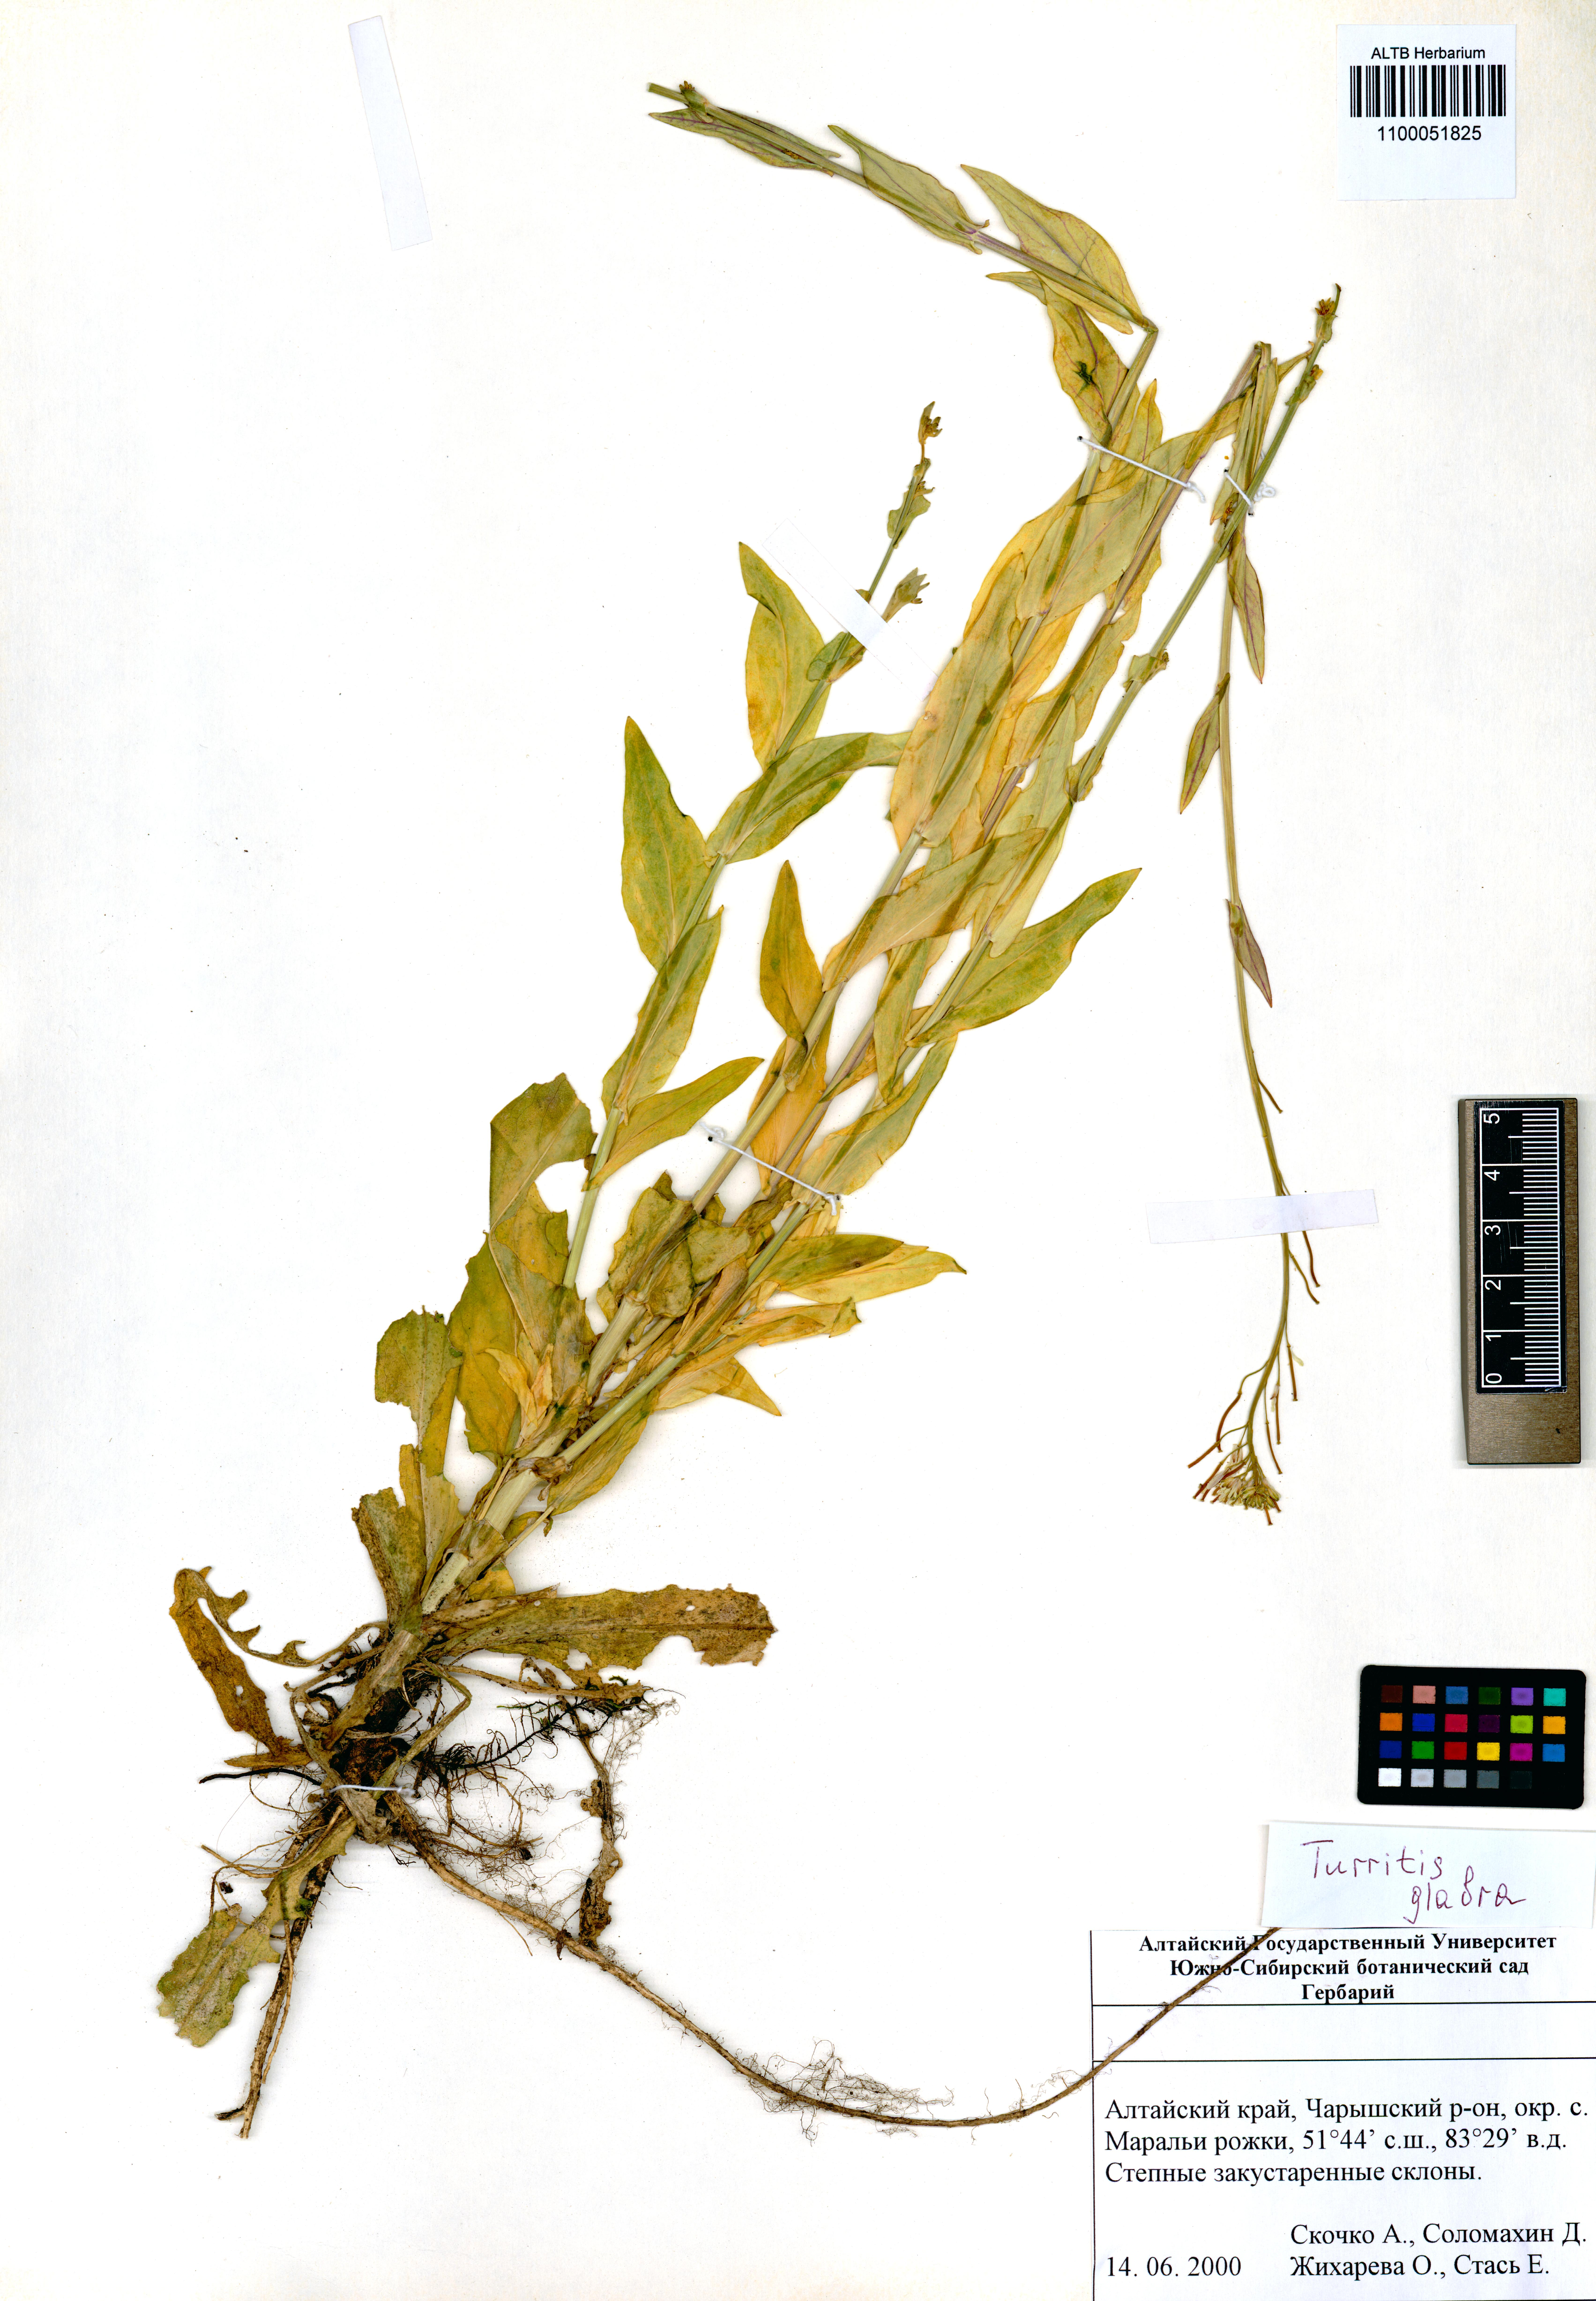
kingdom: Plantae
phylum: Tracheophyta
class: Magnoliopsida
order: Brassicales
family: Brassicaceae
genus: Turritis
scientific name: Turritis glabra
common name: Tower rockcress
